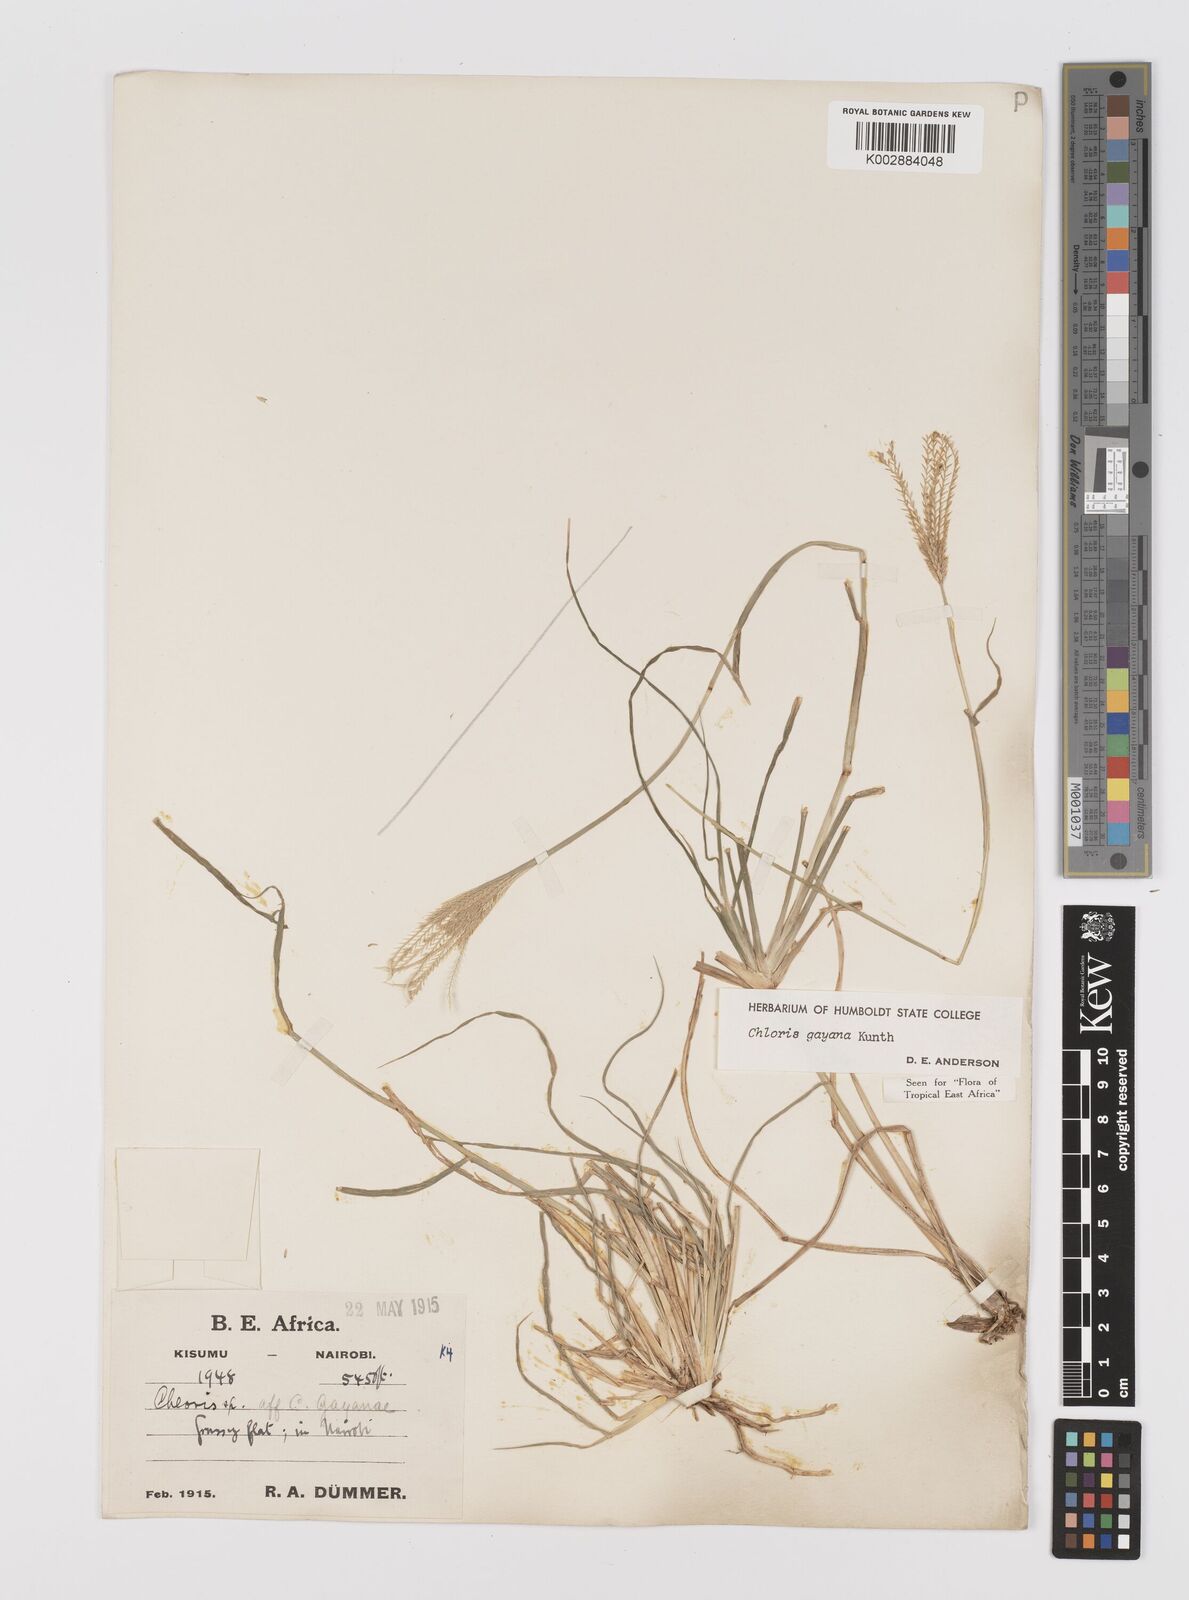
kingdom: Plantae
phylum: Tracheophyta
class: Liliopsida
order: Poales
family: Poaceae
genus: Chloris
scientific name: Chloris gayana
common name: Rhodes grass
